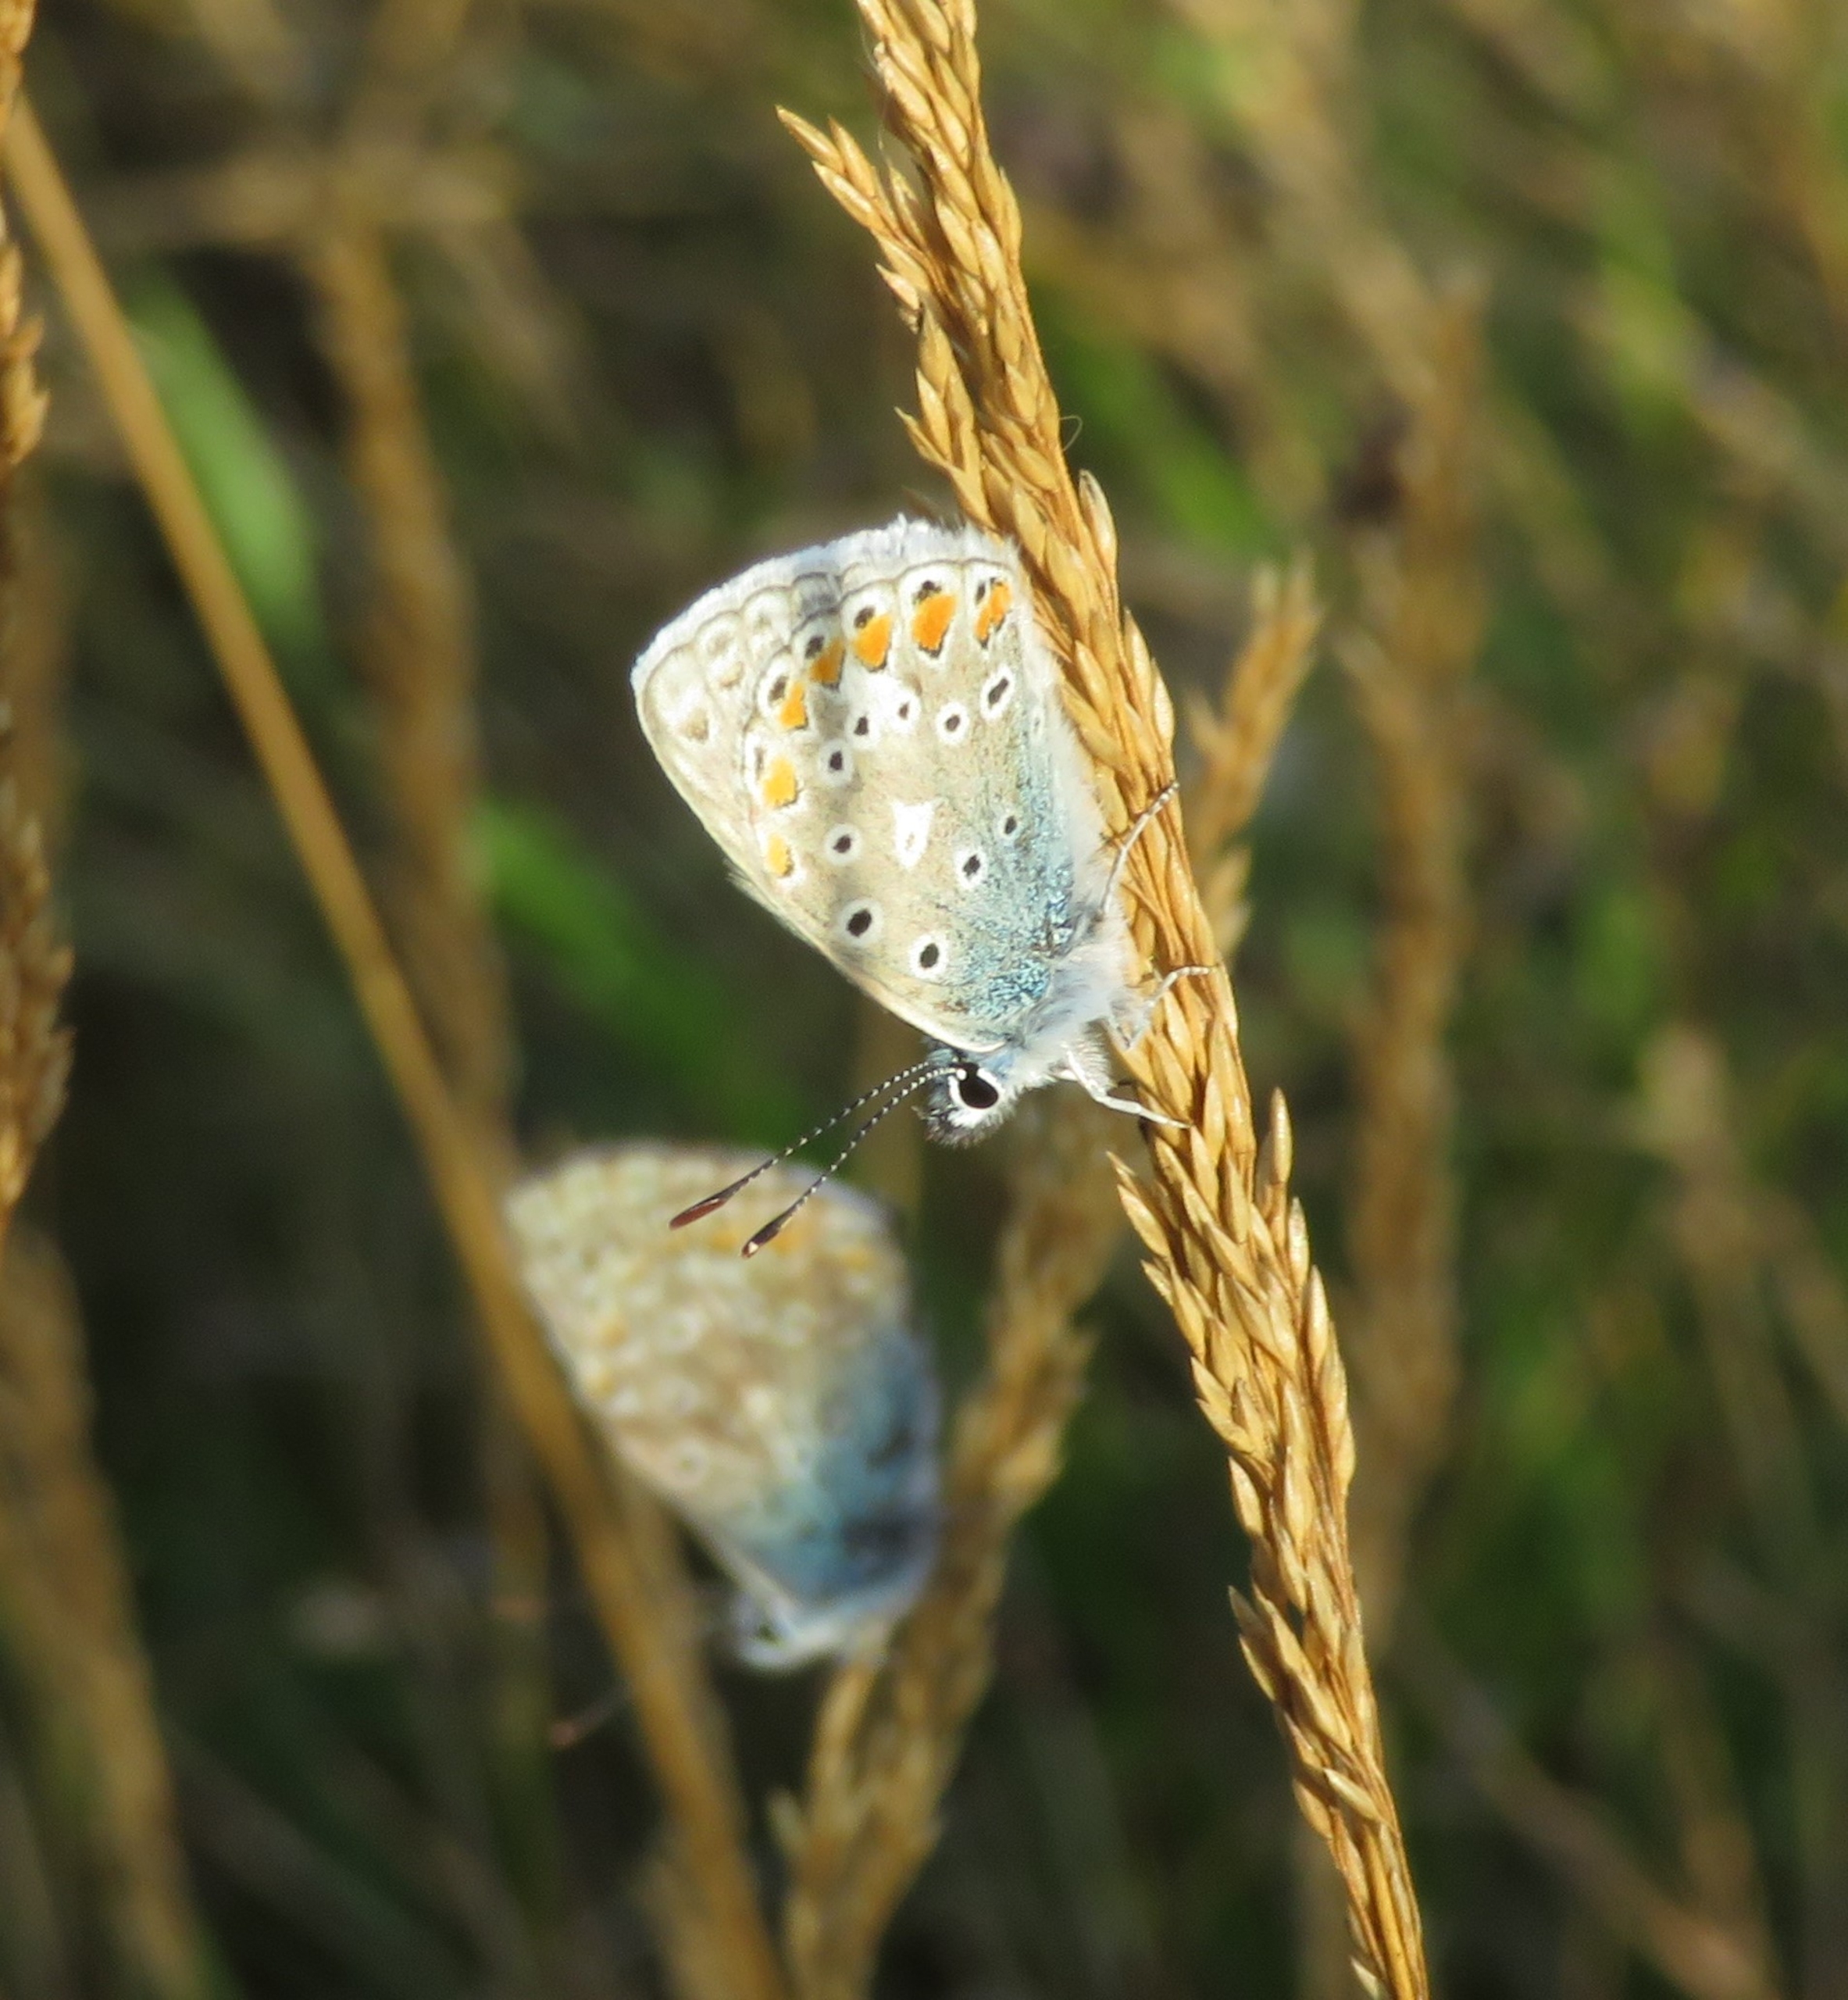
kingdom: Animalia
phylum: Arthropoda
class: Insecta
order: Lepidoptera
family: Lycaenidae
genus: Polyommatus
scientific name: Polyommatus icarus
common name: Almindelig blåfugl
